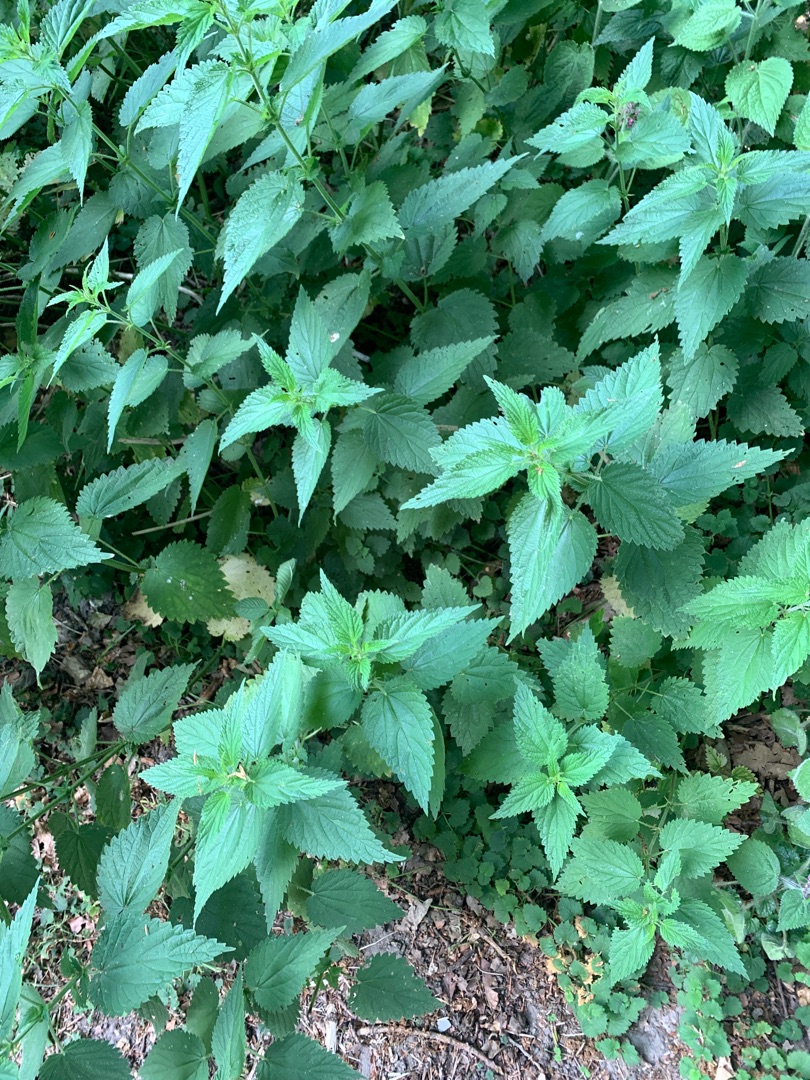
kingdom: Plantae
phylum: Tracheophyta
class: Magnoliopsida
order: Rosales
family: Urticaceae
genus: Urtica
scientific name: Urtica dioica
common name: Stor nælde
